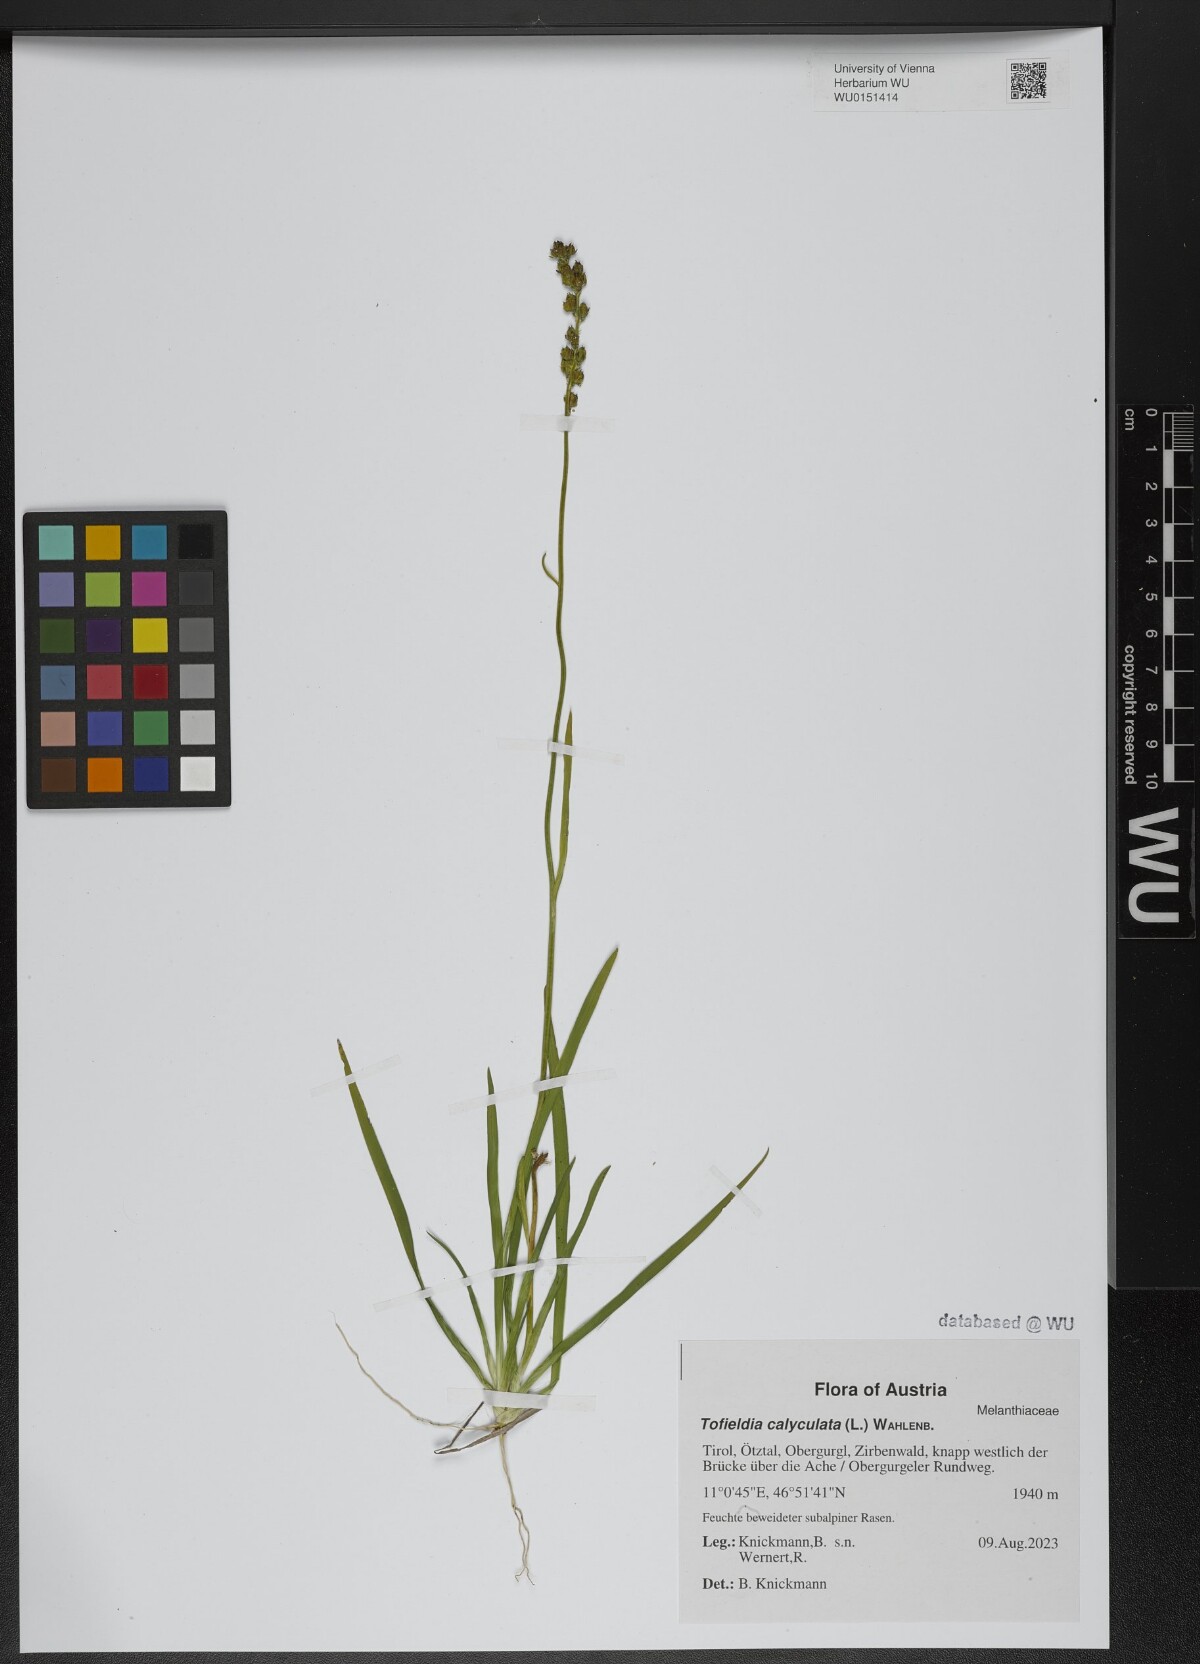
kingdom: Plantae
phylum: Tracheophyta
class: Liliopsida
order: Alismatales
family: Tofieldiaceae
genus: Tofieldia
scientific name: Tofieldia calyculata
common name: German-asphodel
